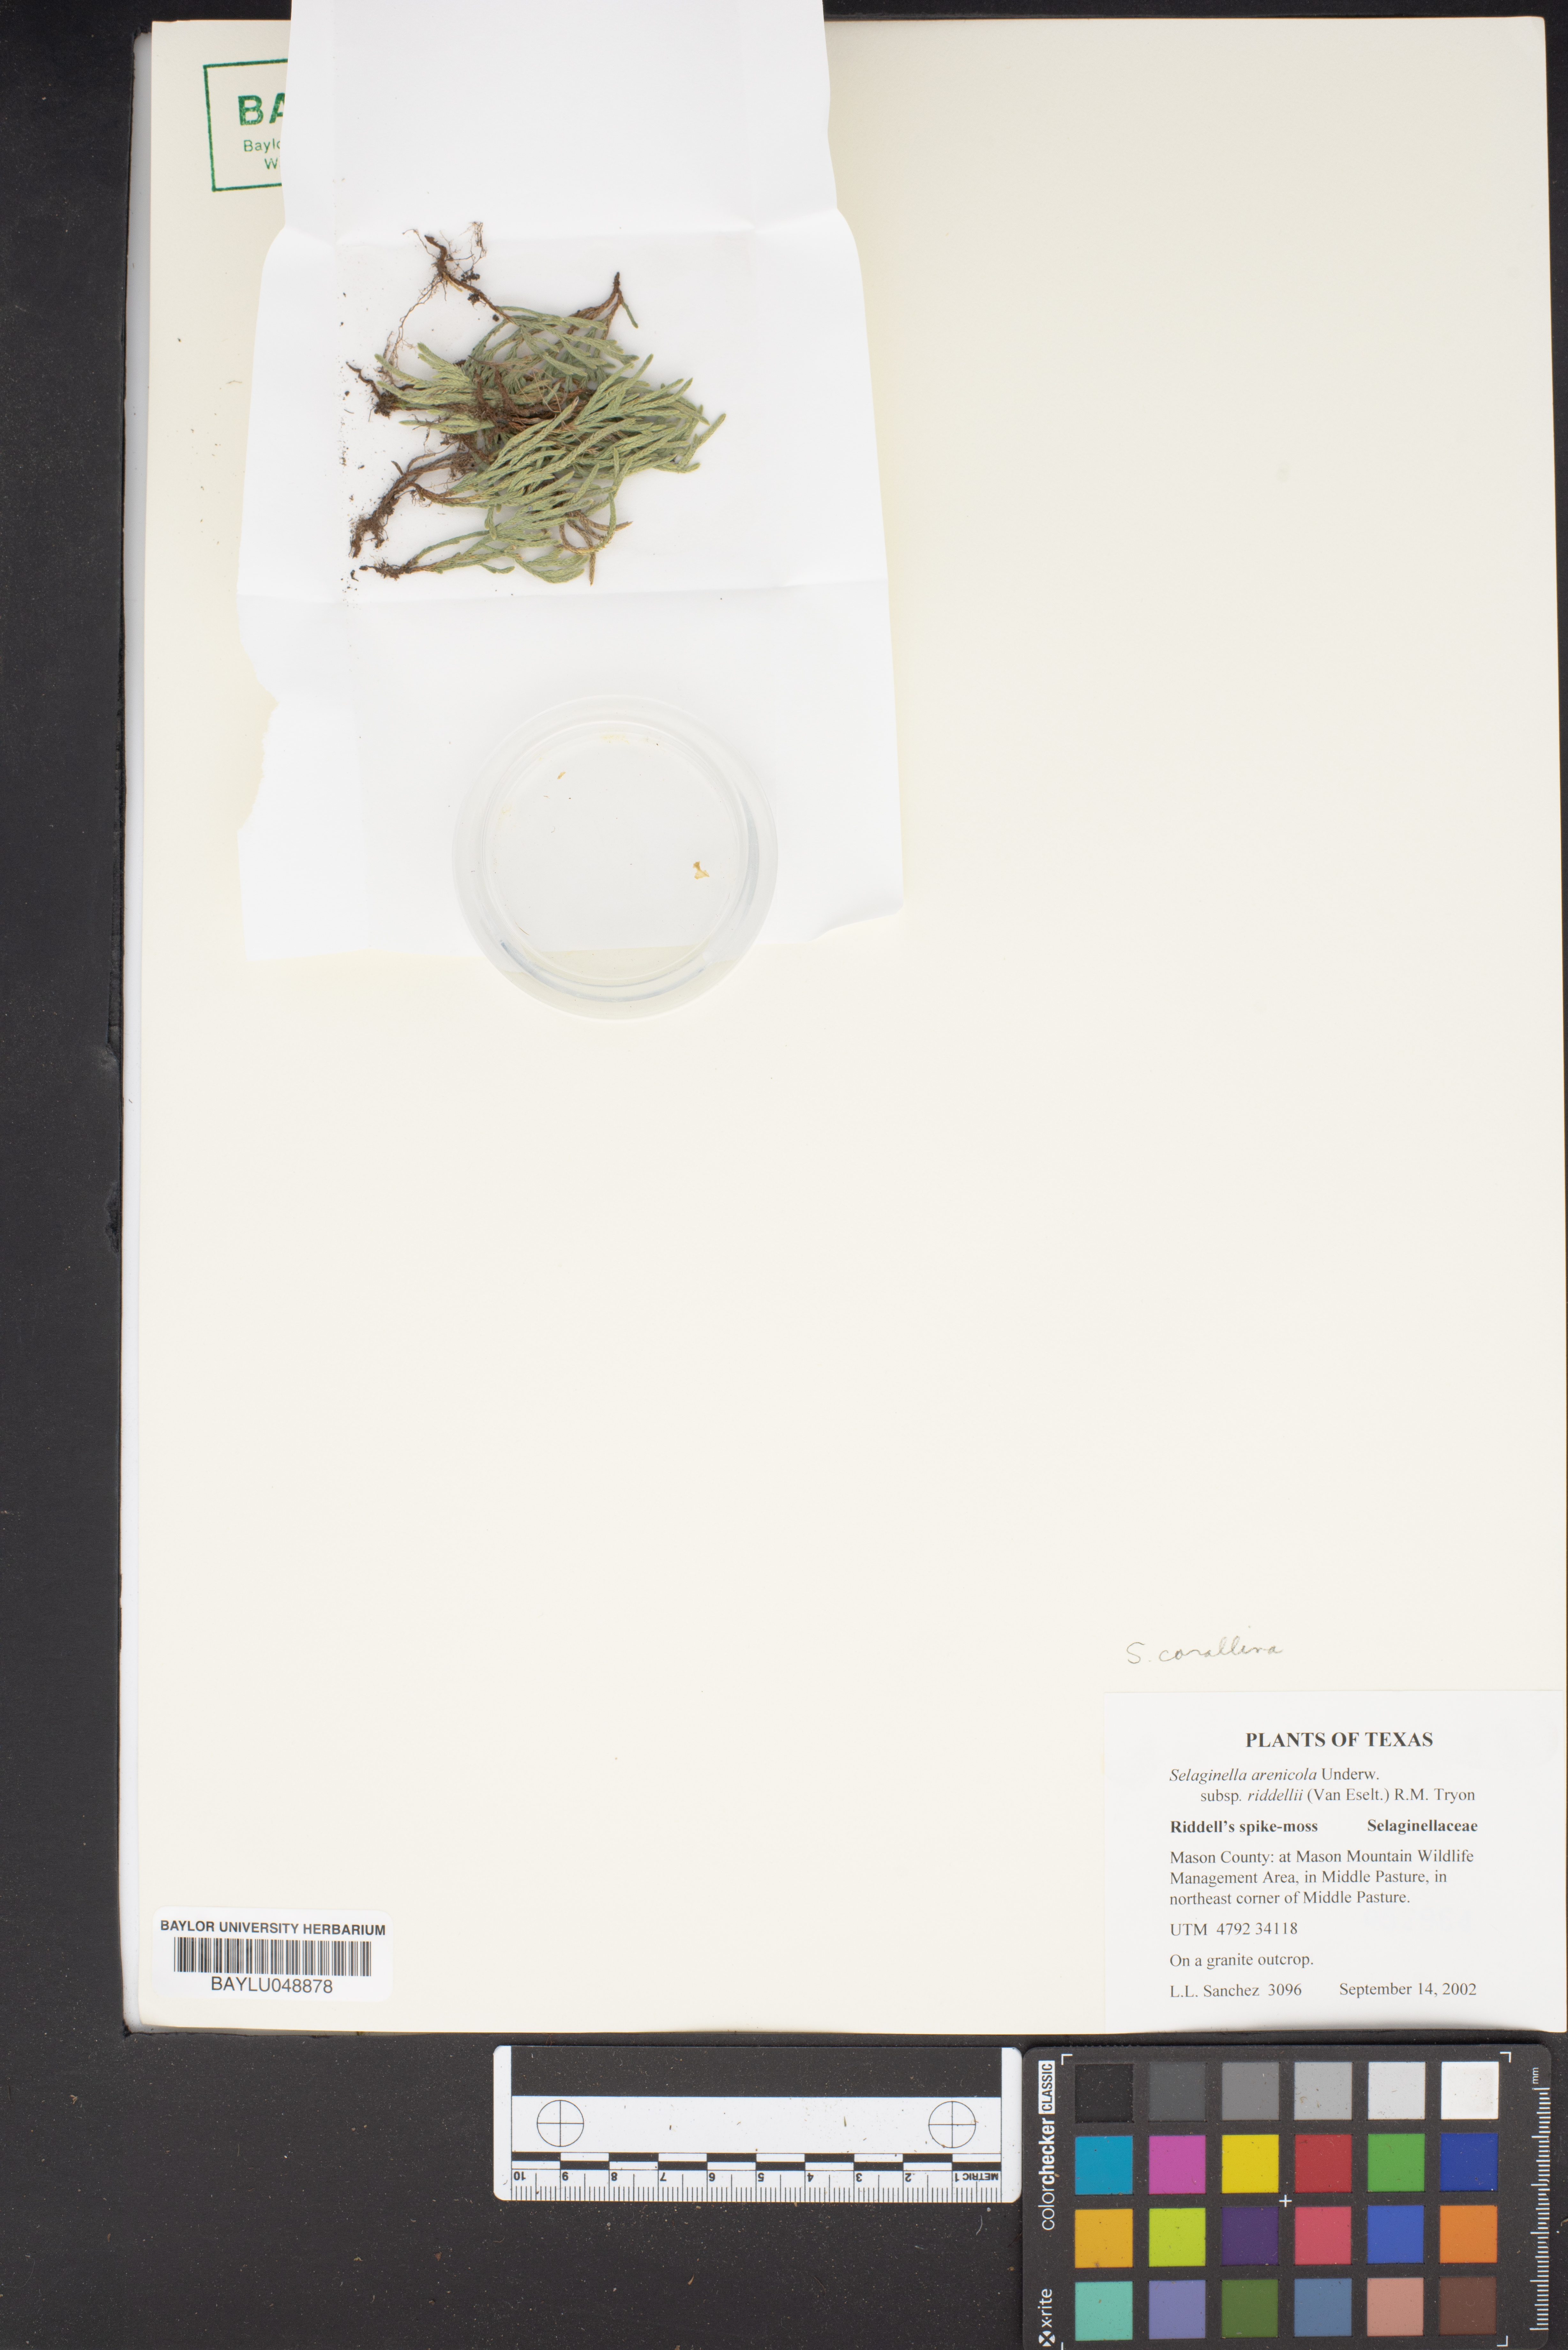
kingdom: Plantae
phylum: Tracheophyta
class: Lycopodiopsida
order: Selaginellales
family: Selaginellaceae
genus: Selaginella
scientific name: Selaginella corallina
